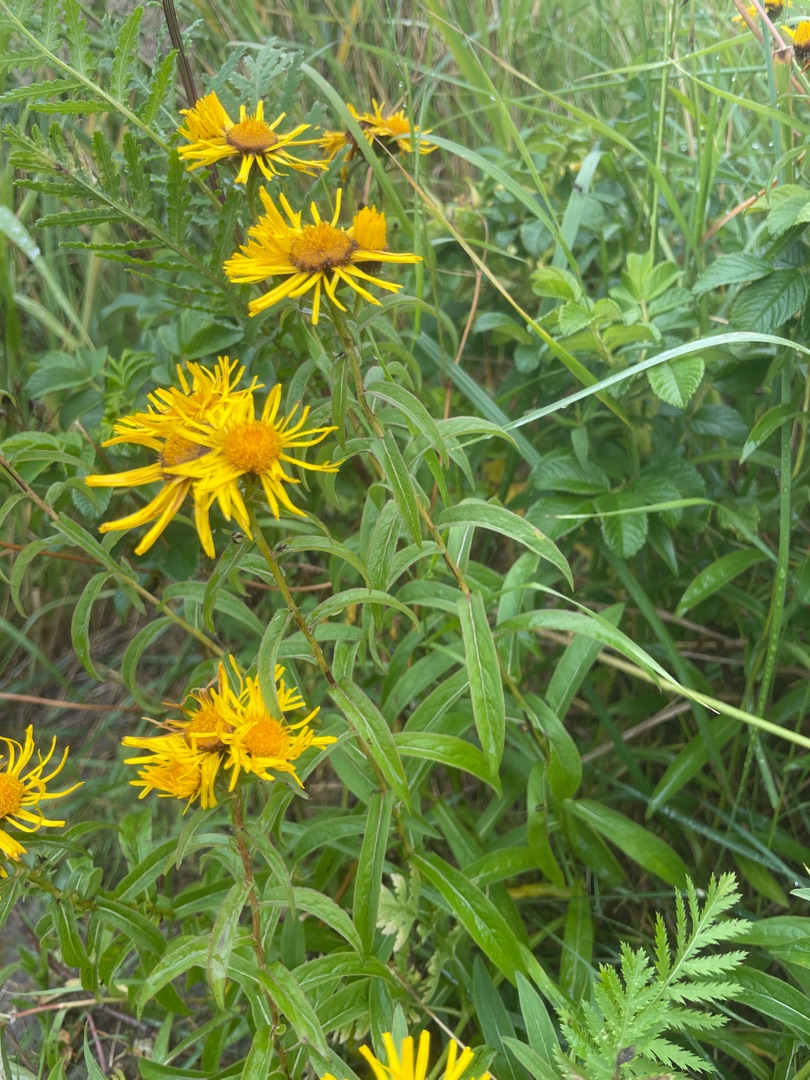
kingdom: Plantae
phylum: Tracheophyta
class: Magnoliopsida
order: Asterales
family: Asteraceae
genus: Pentanema
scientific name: Pentanema salicinum
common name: Pile-alant
